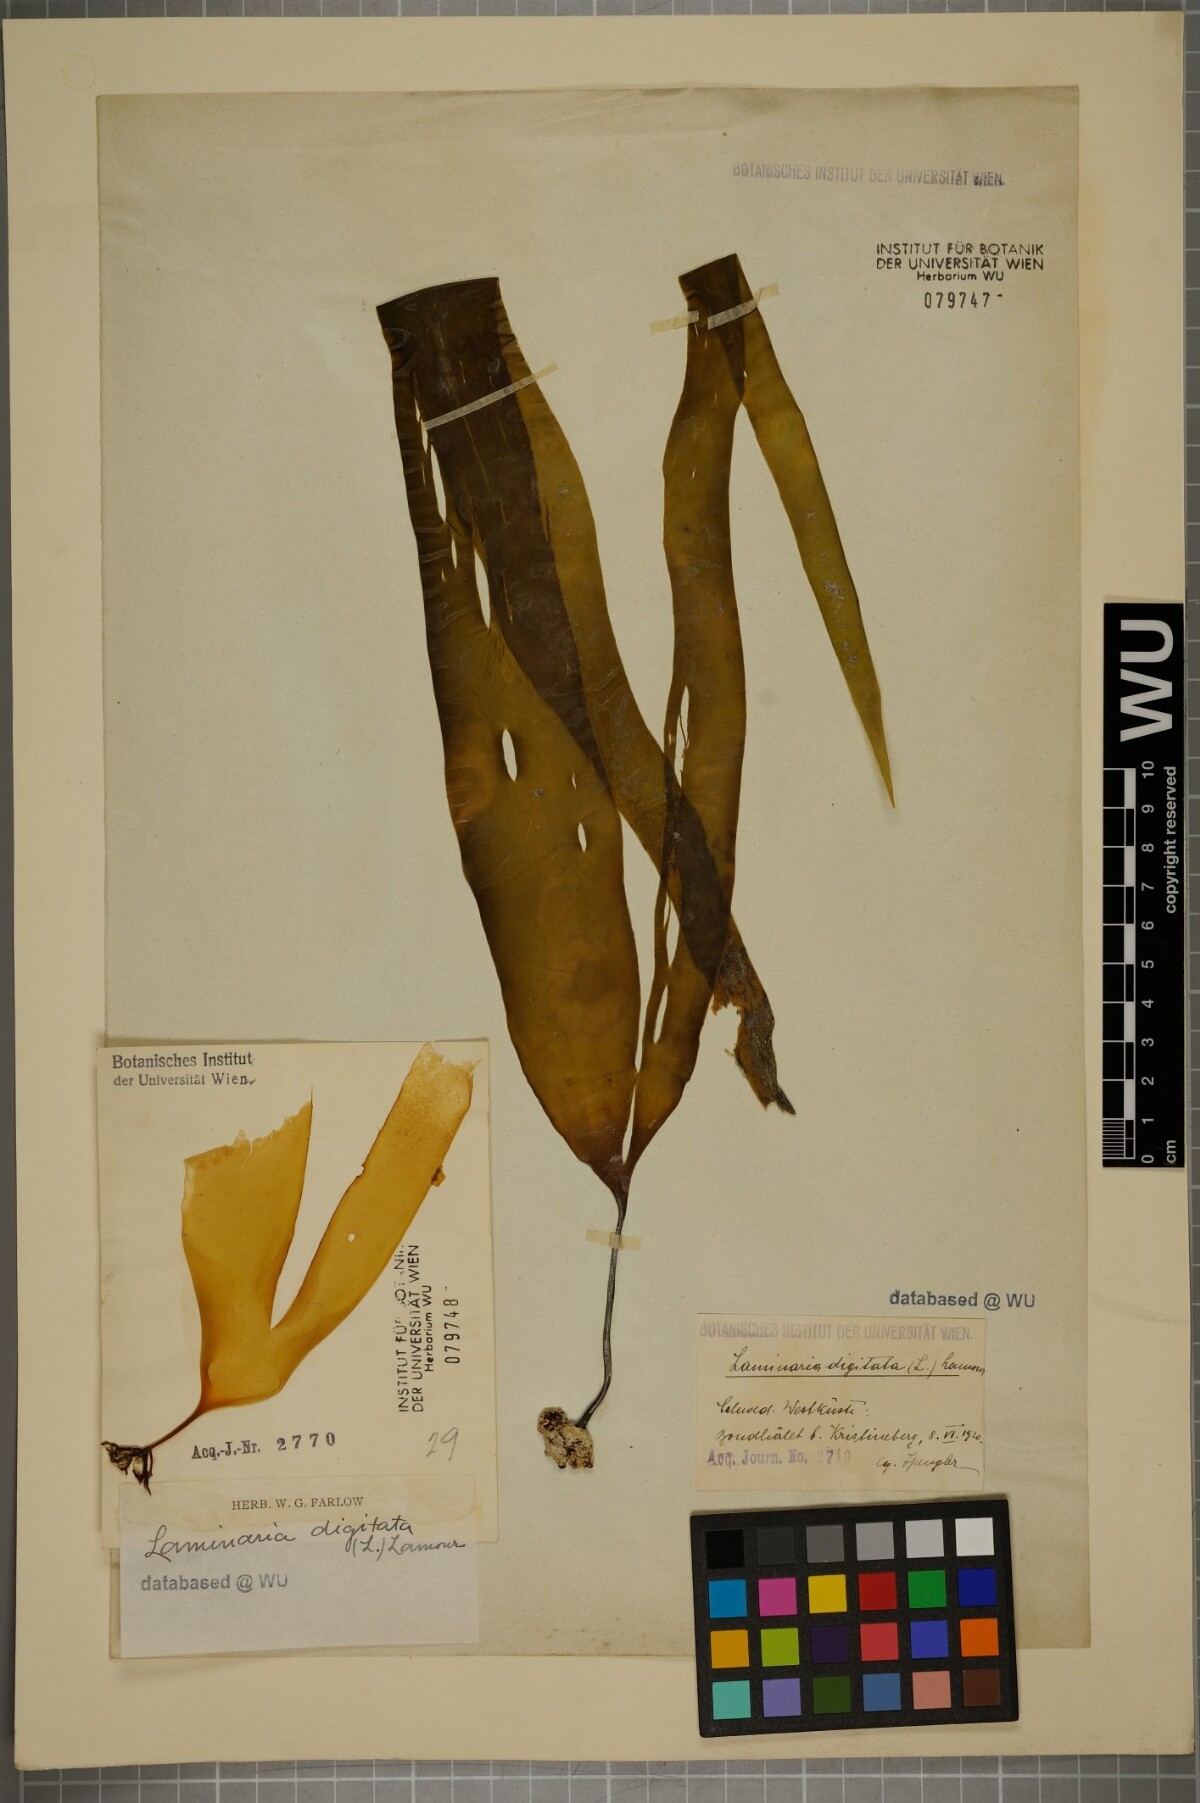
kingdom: Chromista
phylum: Ochrophyta
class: Phaeophyceae
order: Laminariales
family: Laminariaceae
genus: Laminaria
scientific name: Laminaria digitata
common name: Oarweed
